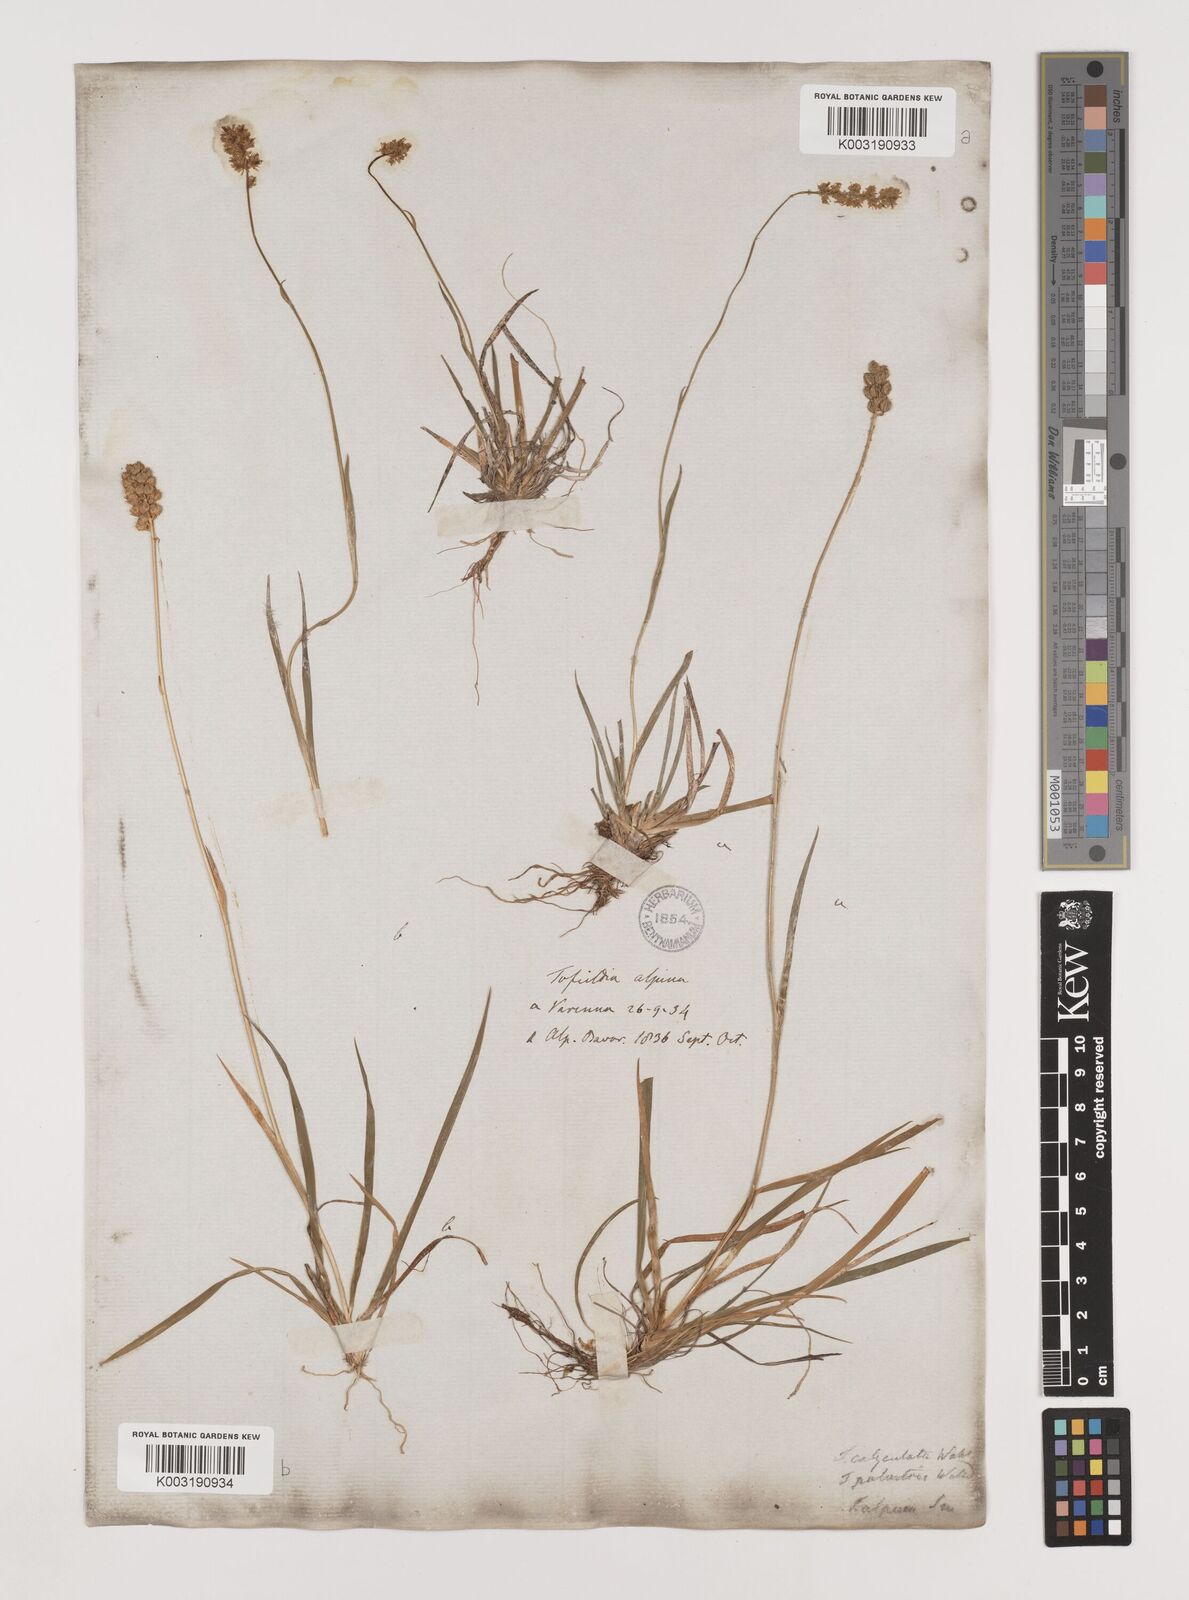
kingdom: Plantae
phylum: Tracheophyta
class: Liliopsida
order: Alismatales
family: Tofieldiaceae
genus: Tofieldia
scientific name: Tofieldia calyculata
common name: German-asphodel
